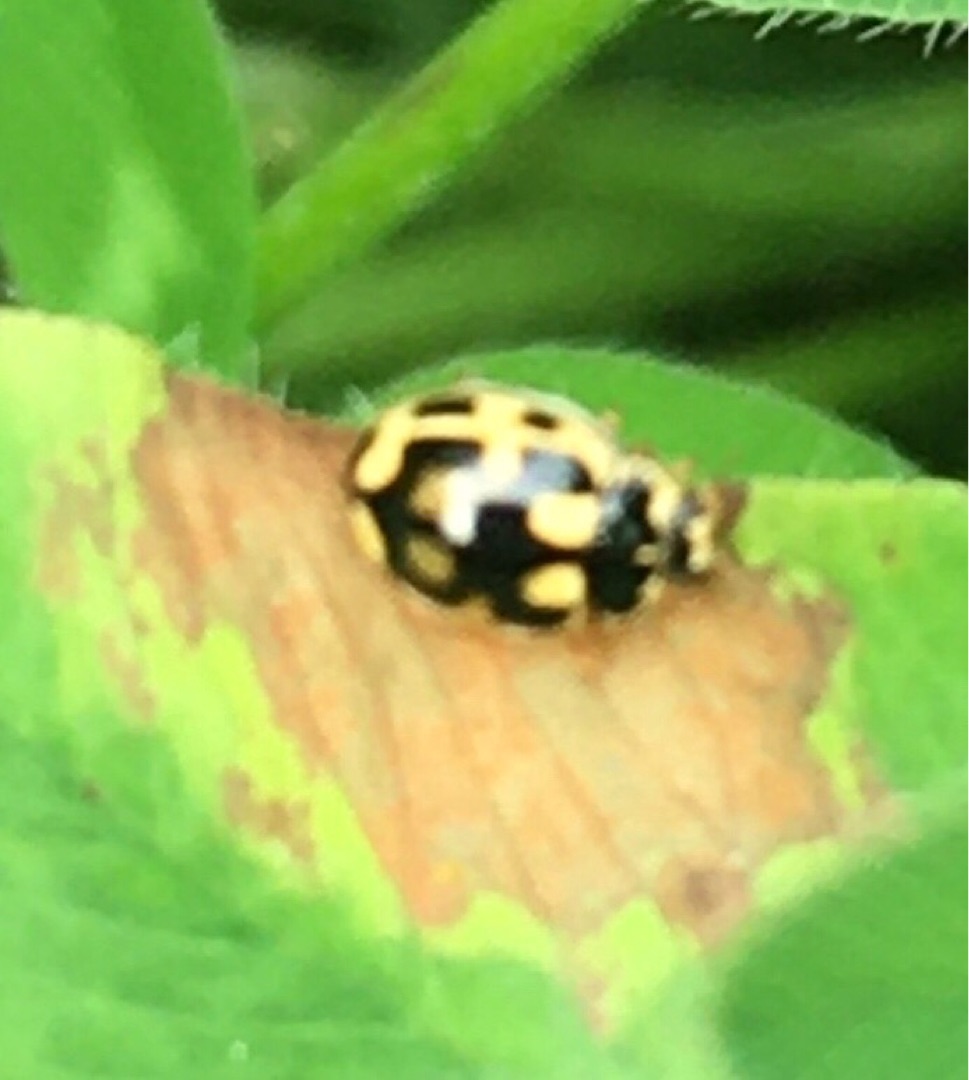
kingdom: Animalia
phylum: Arthropoda
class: Insecta
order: Coleoptera
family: Coccinellidae
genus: Propylaea
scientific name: Propylaea quatuordecimpunctata
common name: Skakbræt
